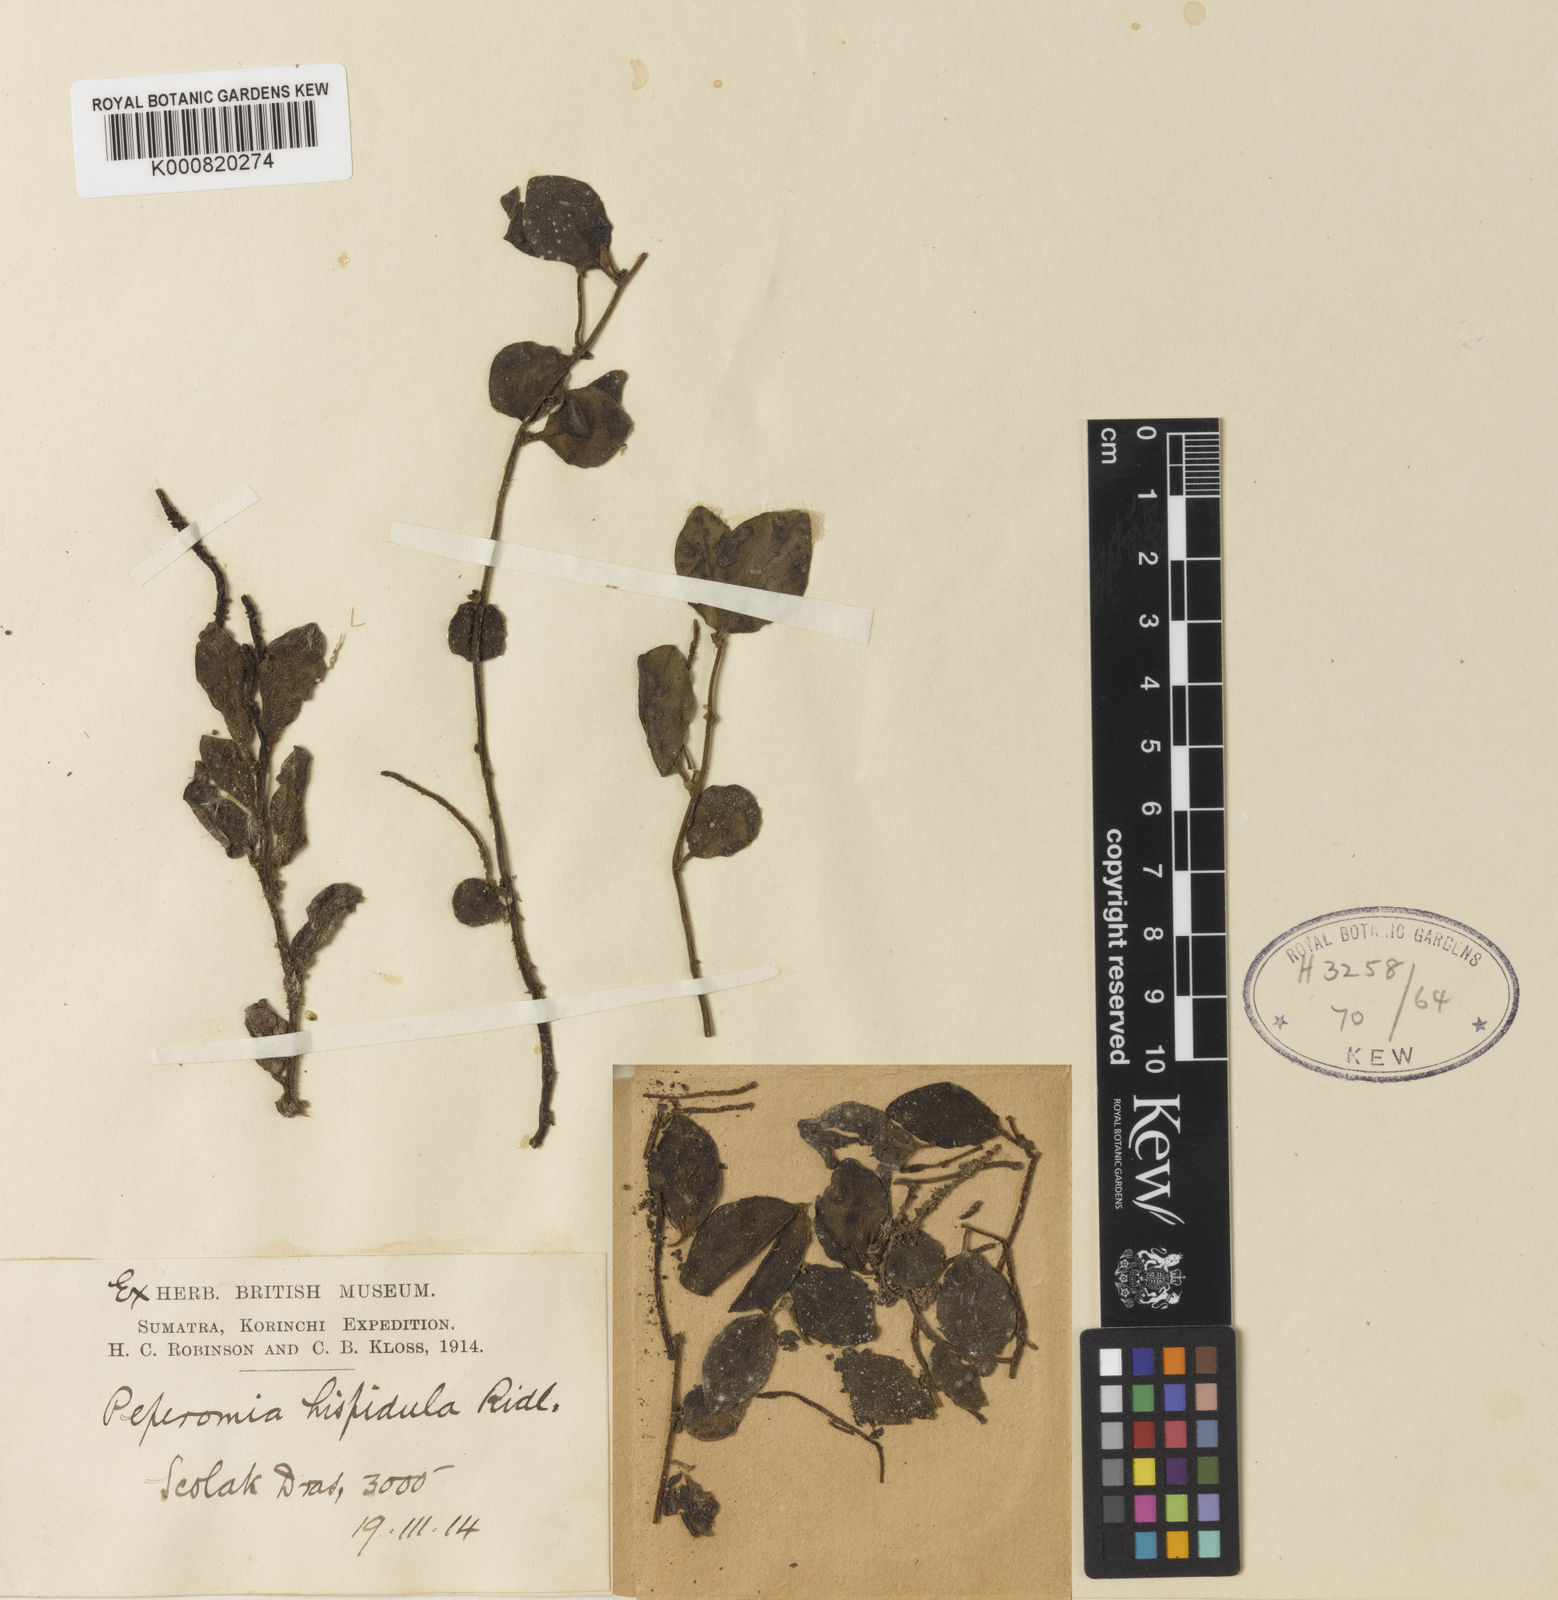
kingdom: Plantae
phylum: Tracheophyta
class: Magnoliopsida
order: Piperales
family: Piperaceae
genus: Peperomia
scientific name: Peperomia hispidula
